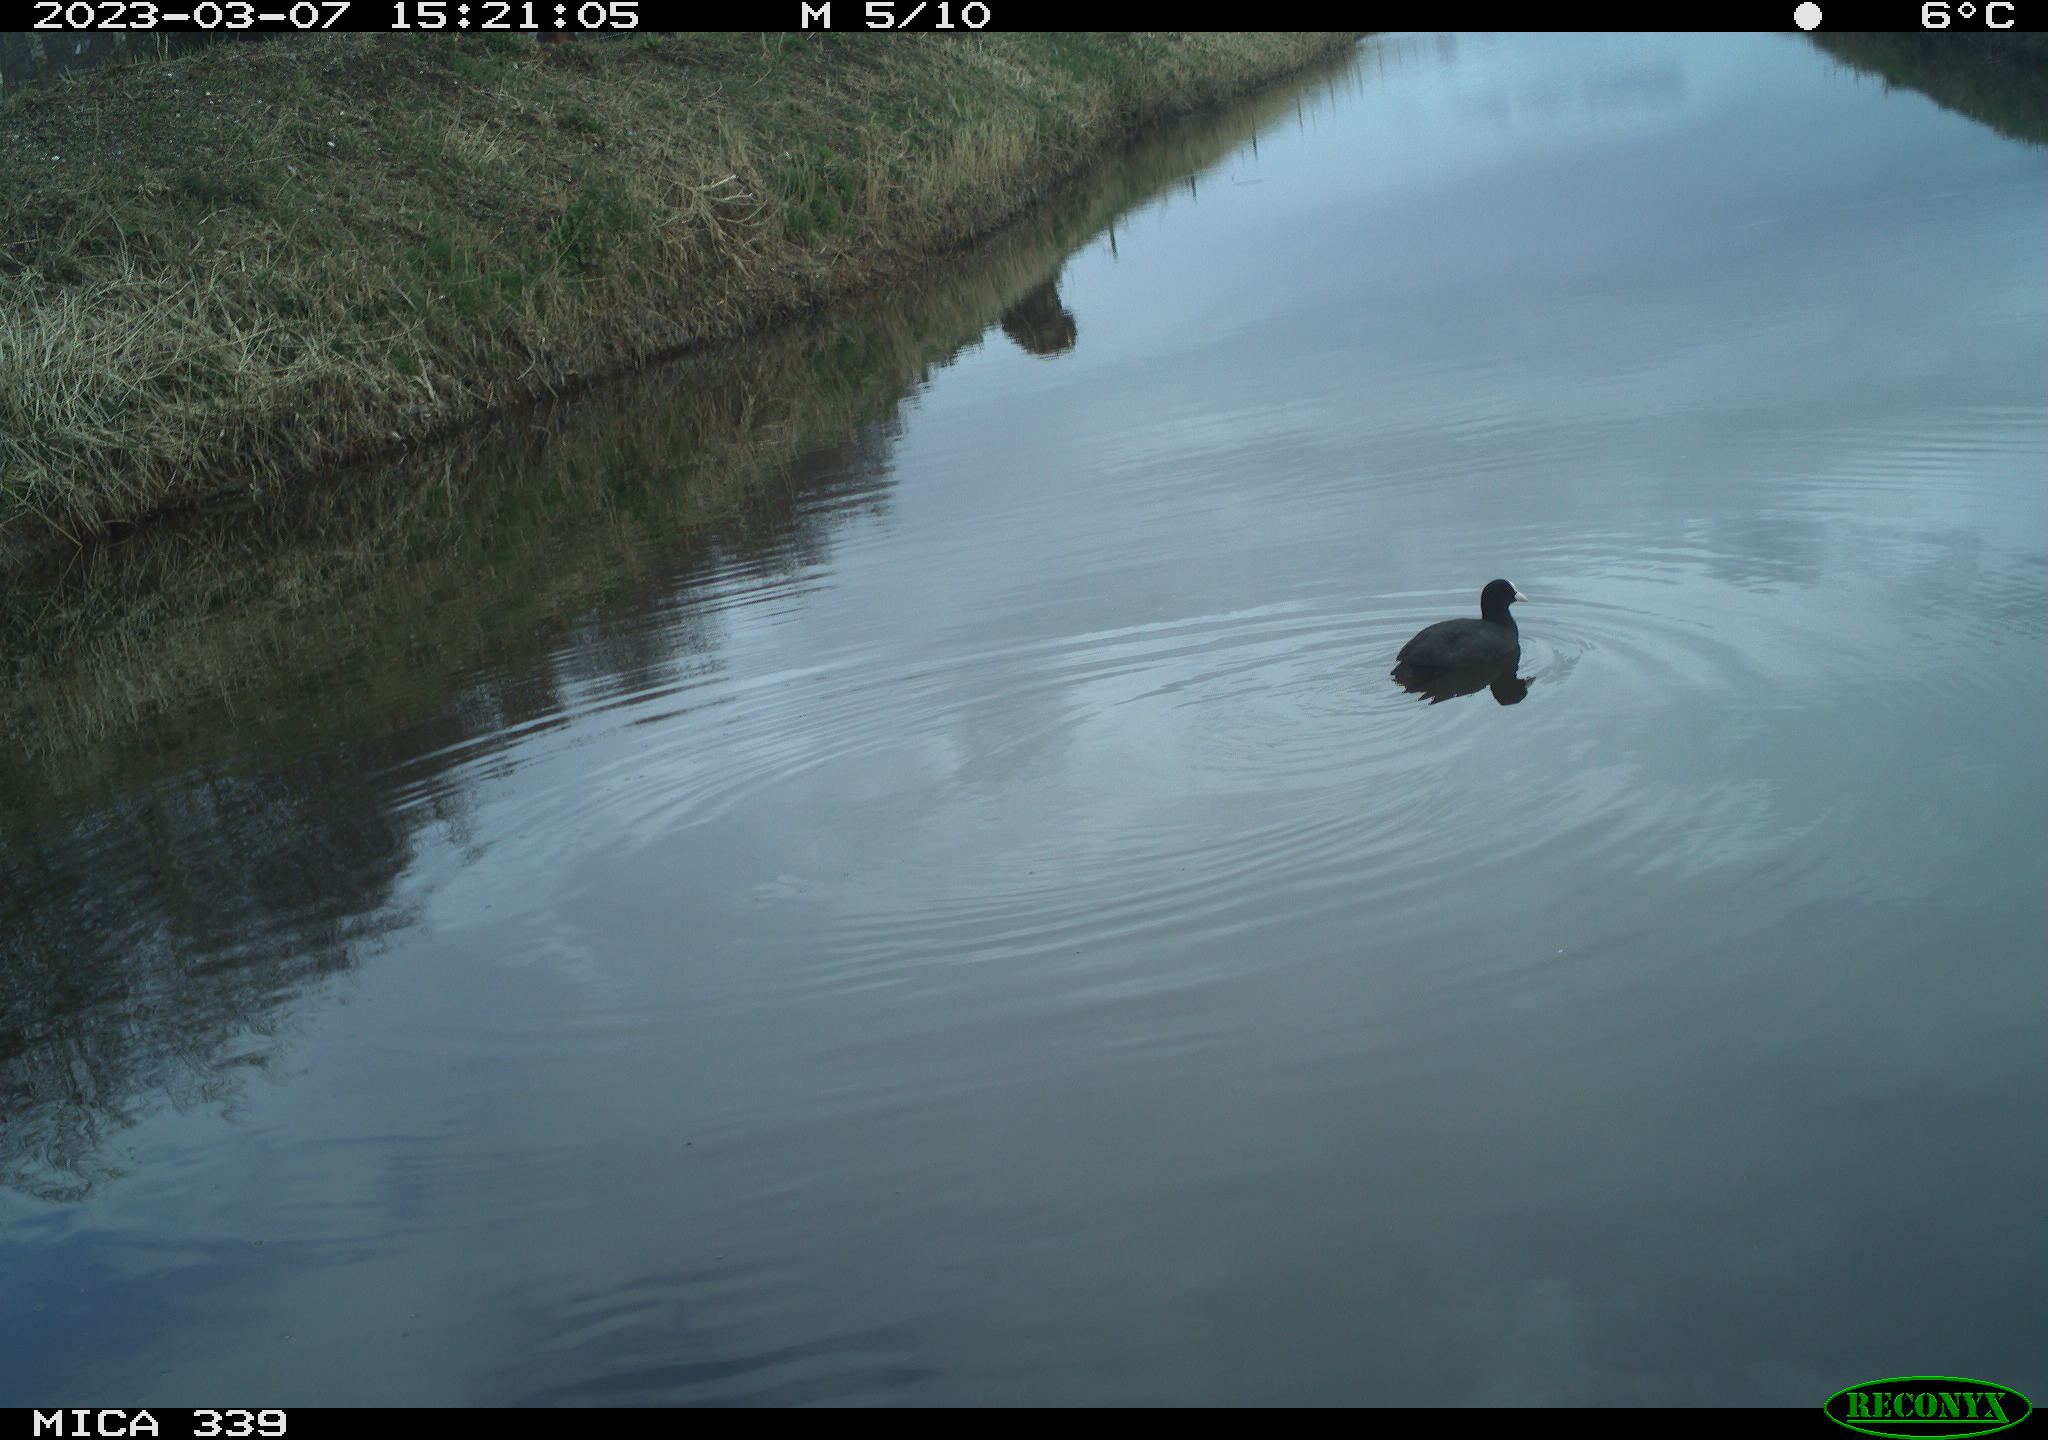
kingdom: Animalia
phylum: Chordata
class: Aves
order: Gruiformes
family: Rallidae
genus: Fulica
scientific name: Fulica atra
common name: Eurasian coot
